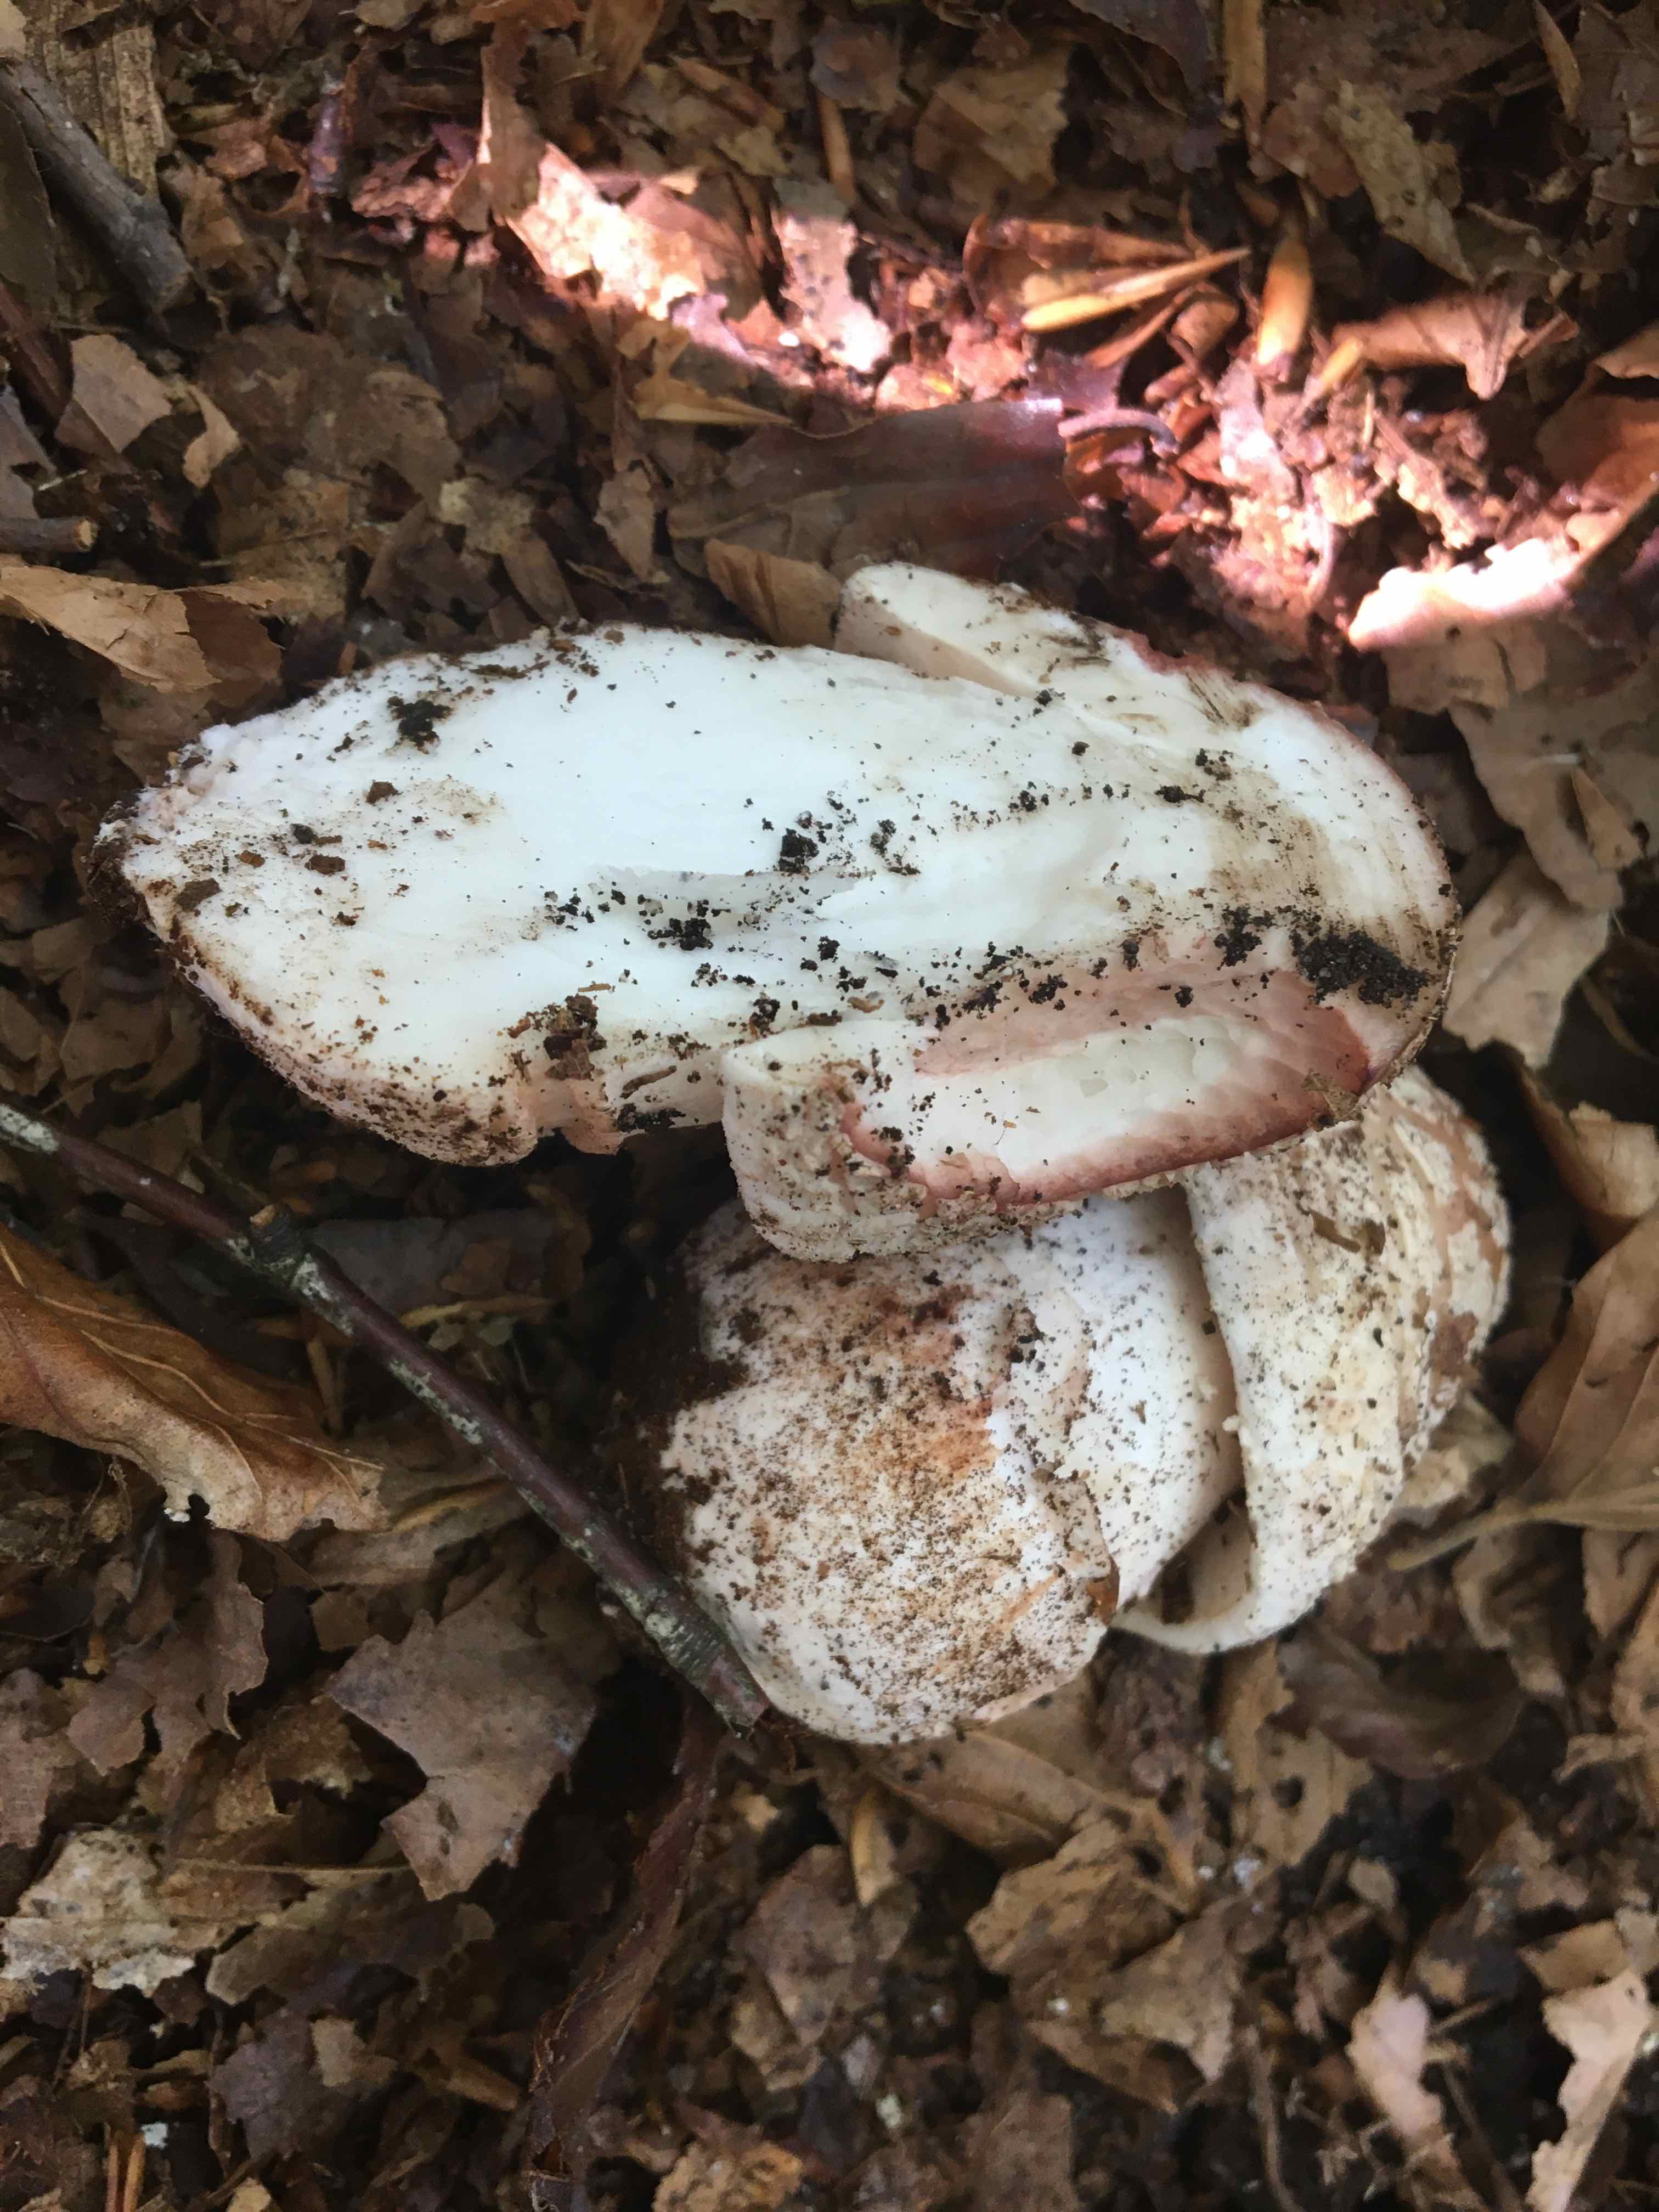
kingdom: Fungi
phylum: Basidiomycota
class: Agaricomycetes
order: Agaricales
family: Amanitaceae
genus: Amanita
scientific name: Amanita rubescens
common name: rødmende fluesvamp
